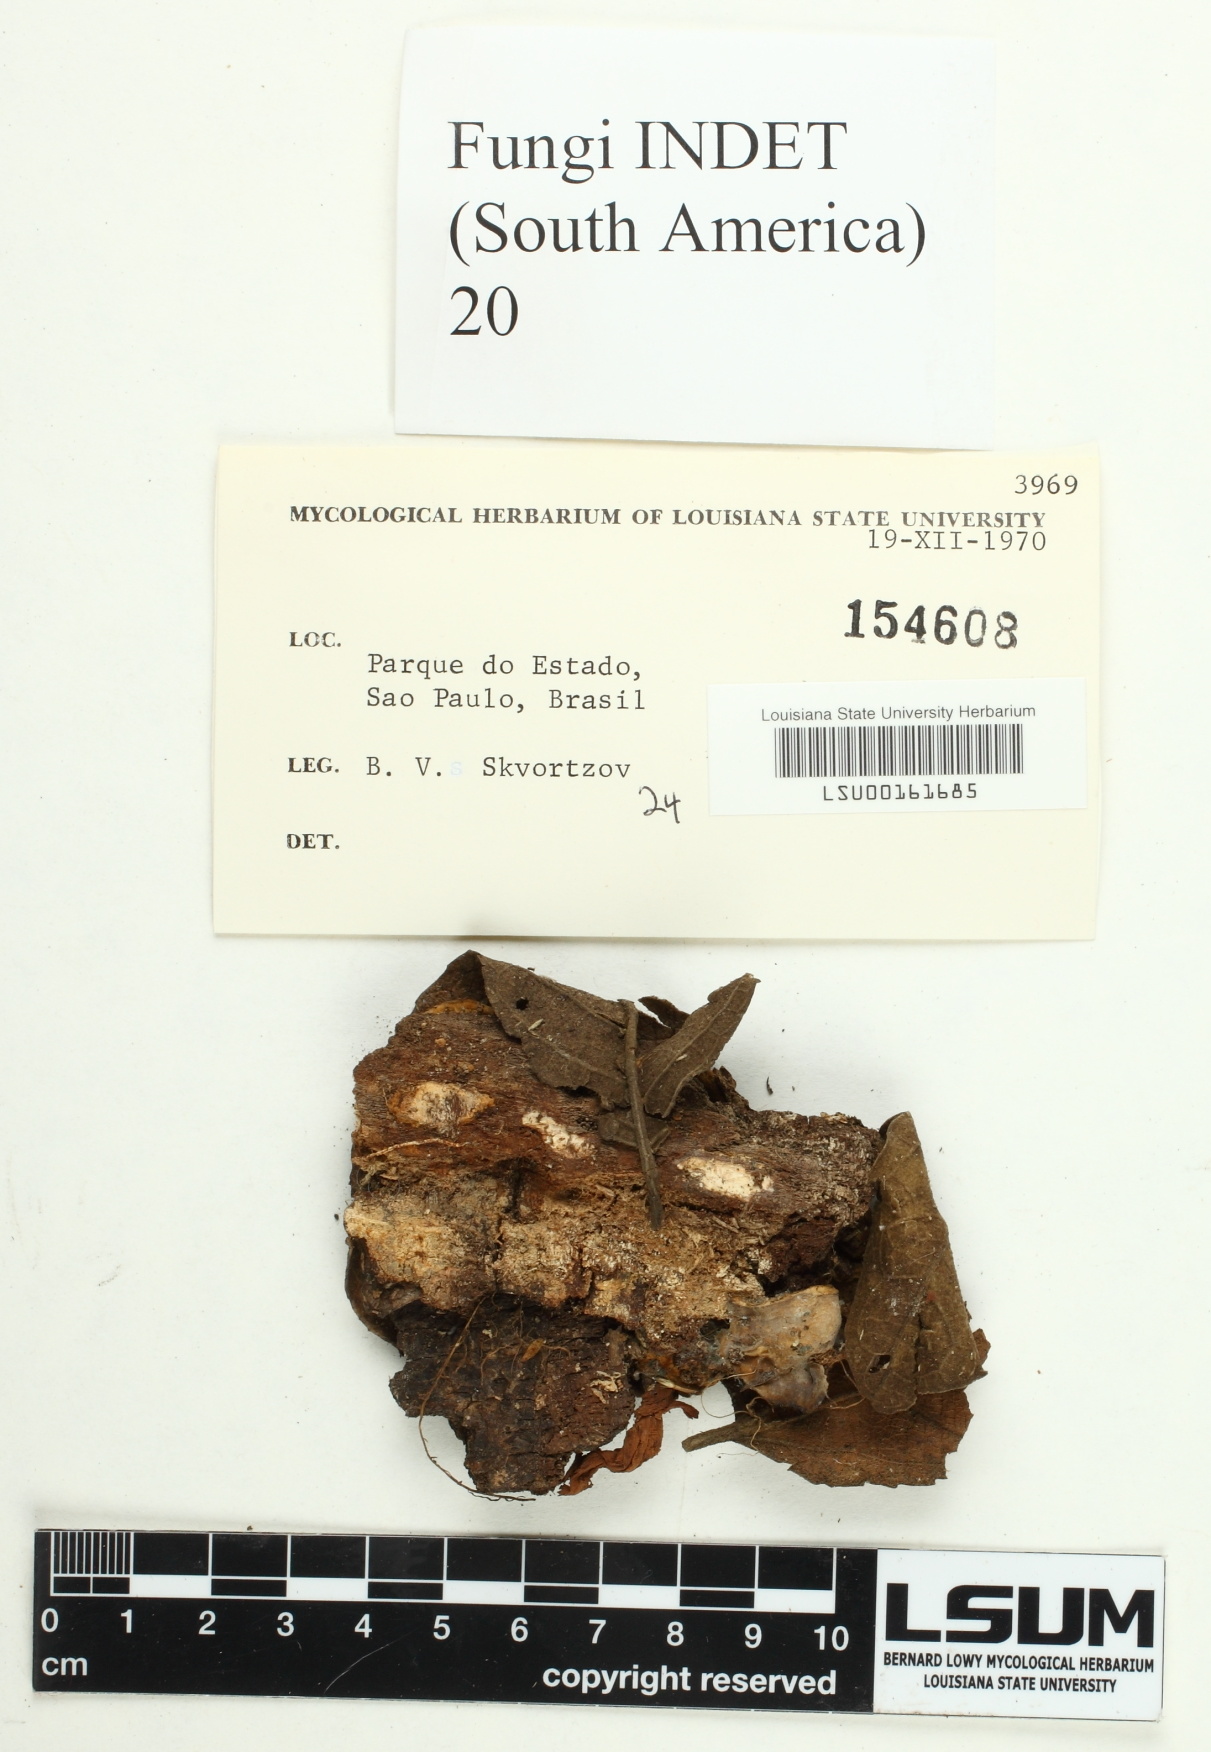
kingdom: Fungi
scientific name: Fungi
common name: Fungi
